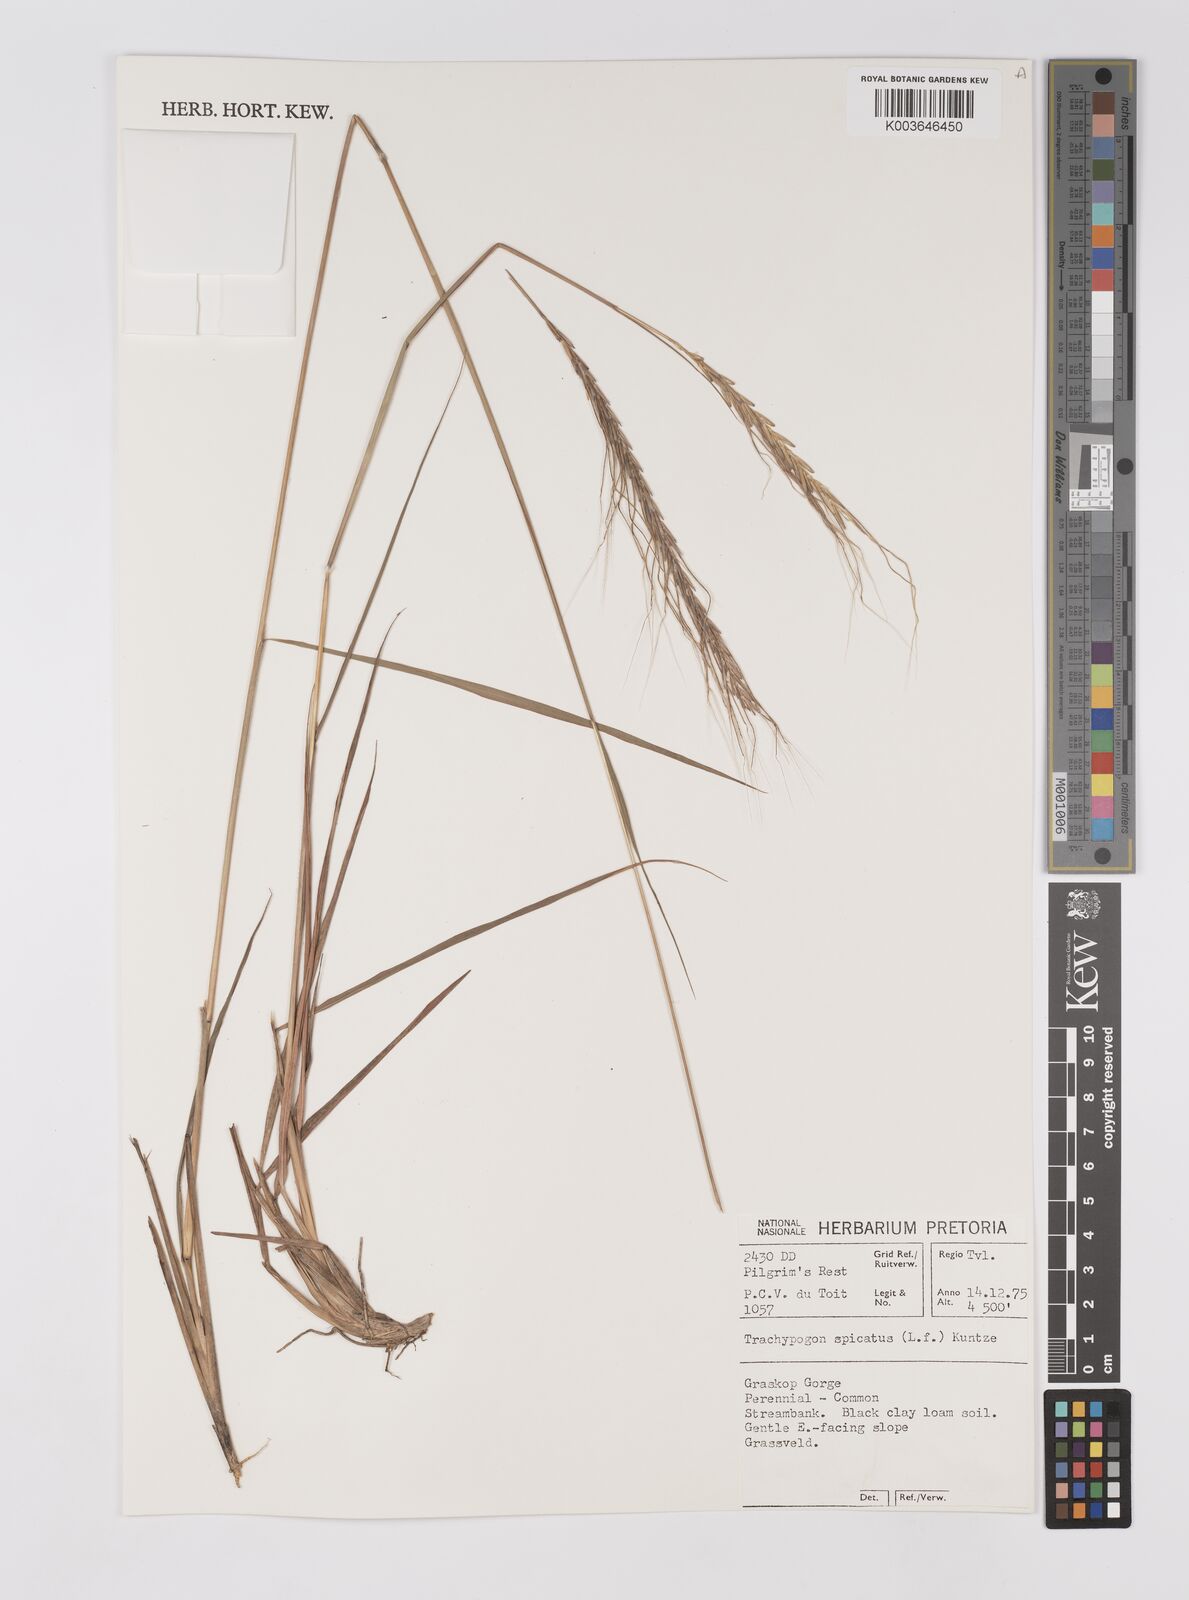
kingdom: Plantae
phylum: Tracheophyta
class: Liliopsida
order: Poales
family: Poaceae
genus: Trachypogon
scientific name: Trachypogon spicatus
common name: Crinkle-awn
